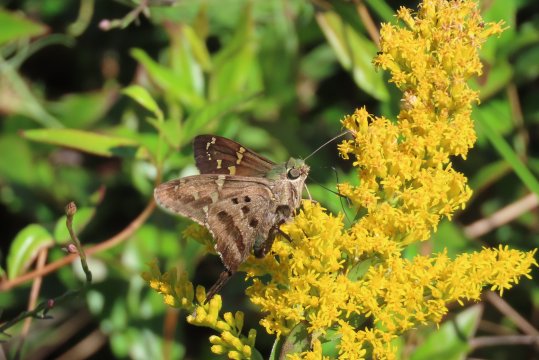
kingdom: Animalia
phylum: Arthropoda
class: Insecta
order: Lepidoptera
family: Hesperiidae
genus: Urbanus
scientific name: Urbanus proteus
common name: Long-tailed Skipper
